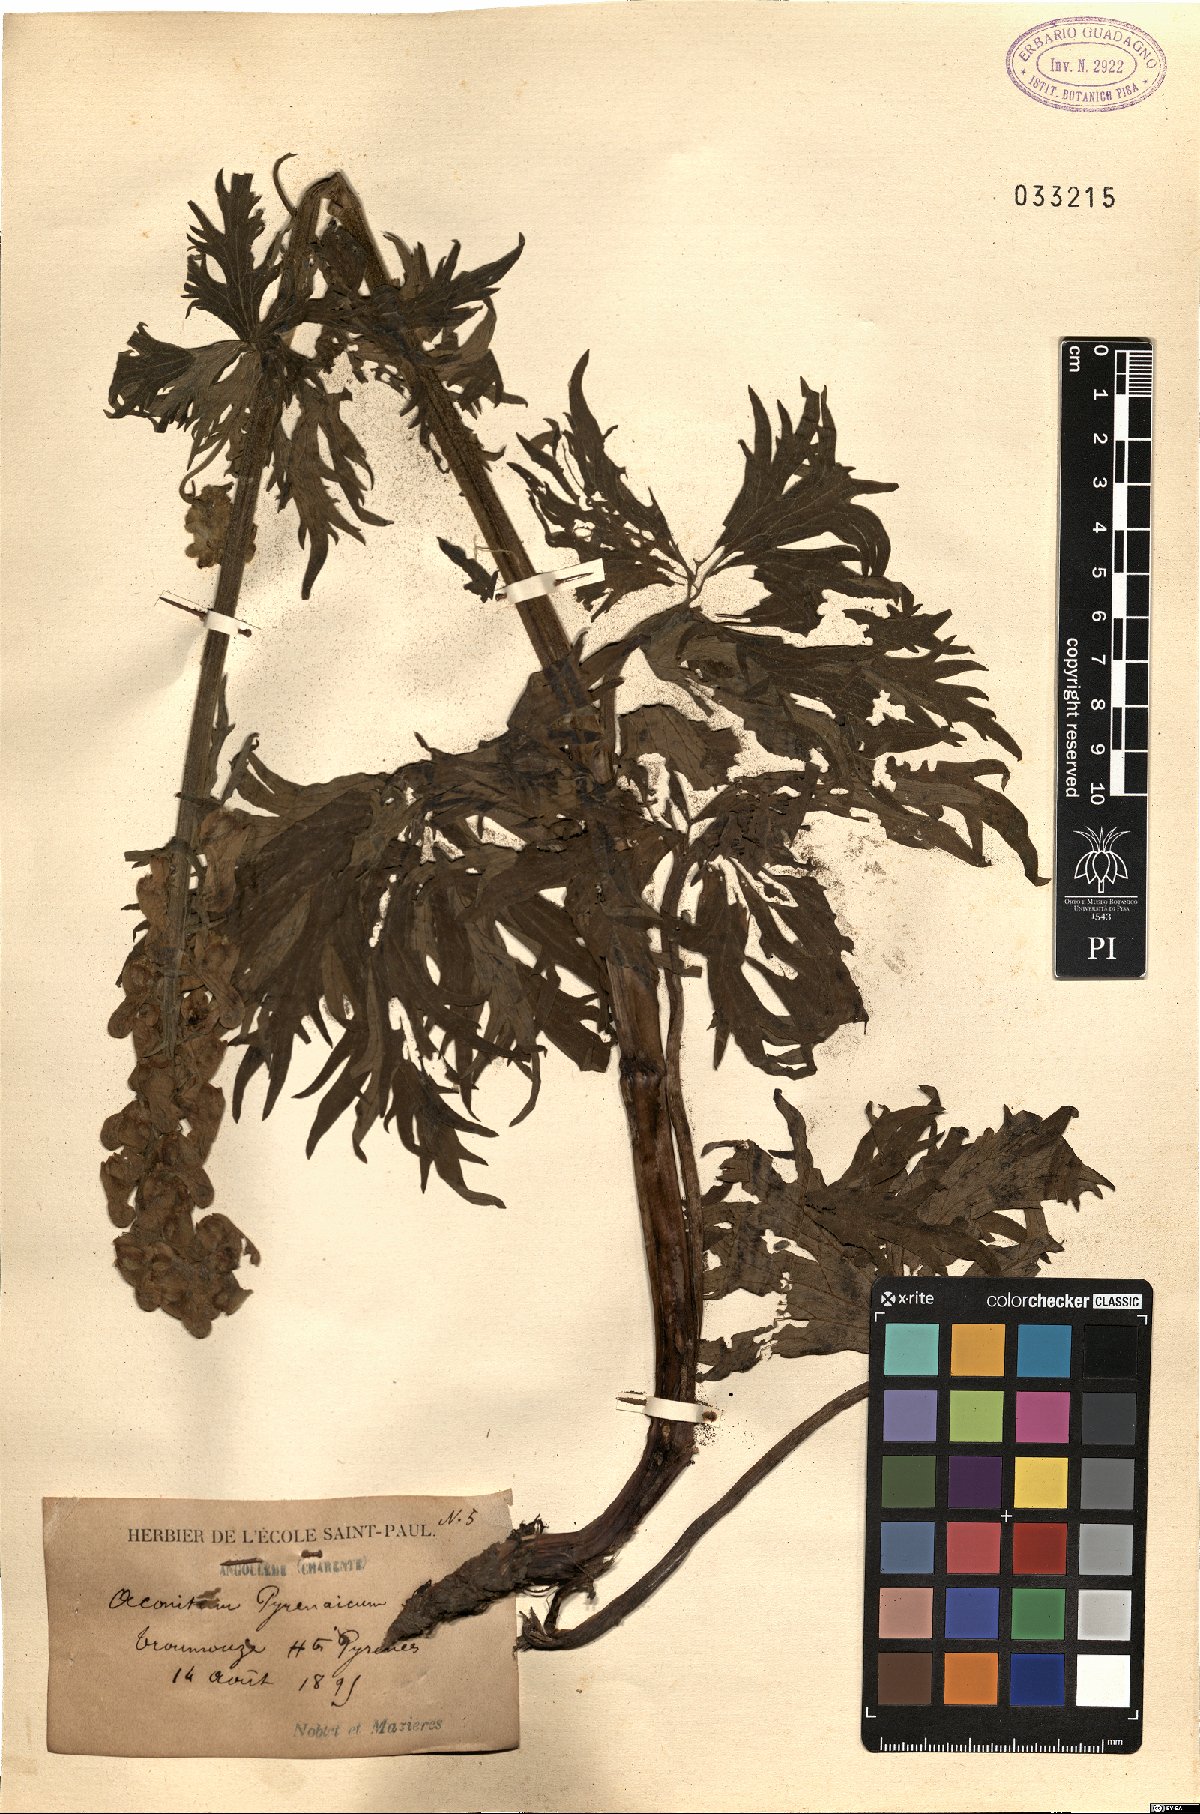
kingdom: Plantae
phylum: Tracheophyta
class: Magnoliopsida
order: Ranunculales
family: Ranunculaceae
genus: Aconitum
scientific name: Aconitum lycoctonum
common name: Wolf's-bane
